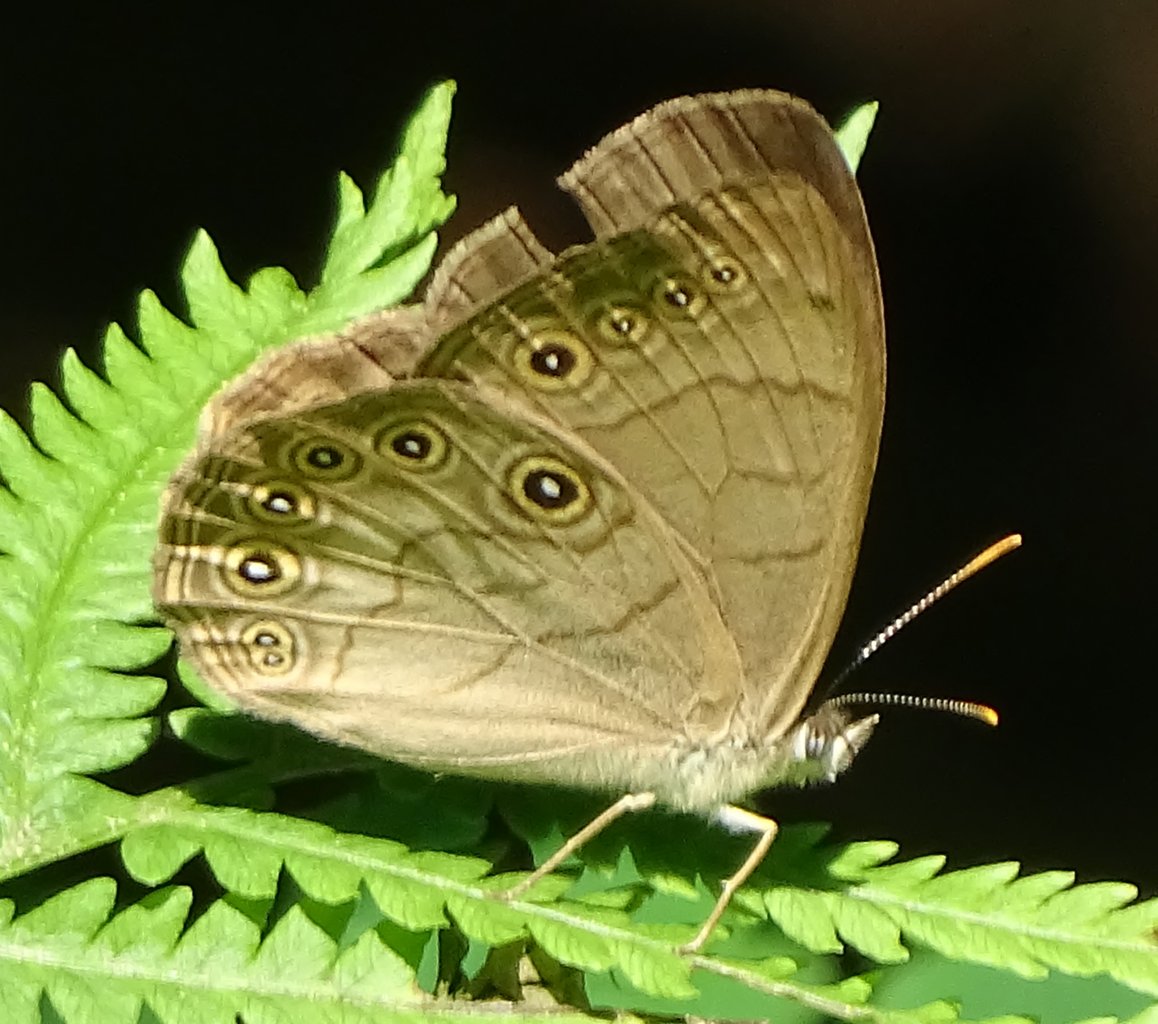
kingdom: Animalia
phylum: Arthropoda
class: Insecta
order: Lepidoptera
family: Nymphalidae
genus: Lethe
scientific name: Lethe eurydice
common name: Appalachian Eyed Brown
